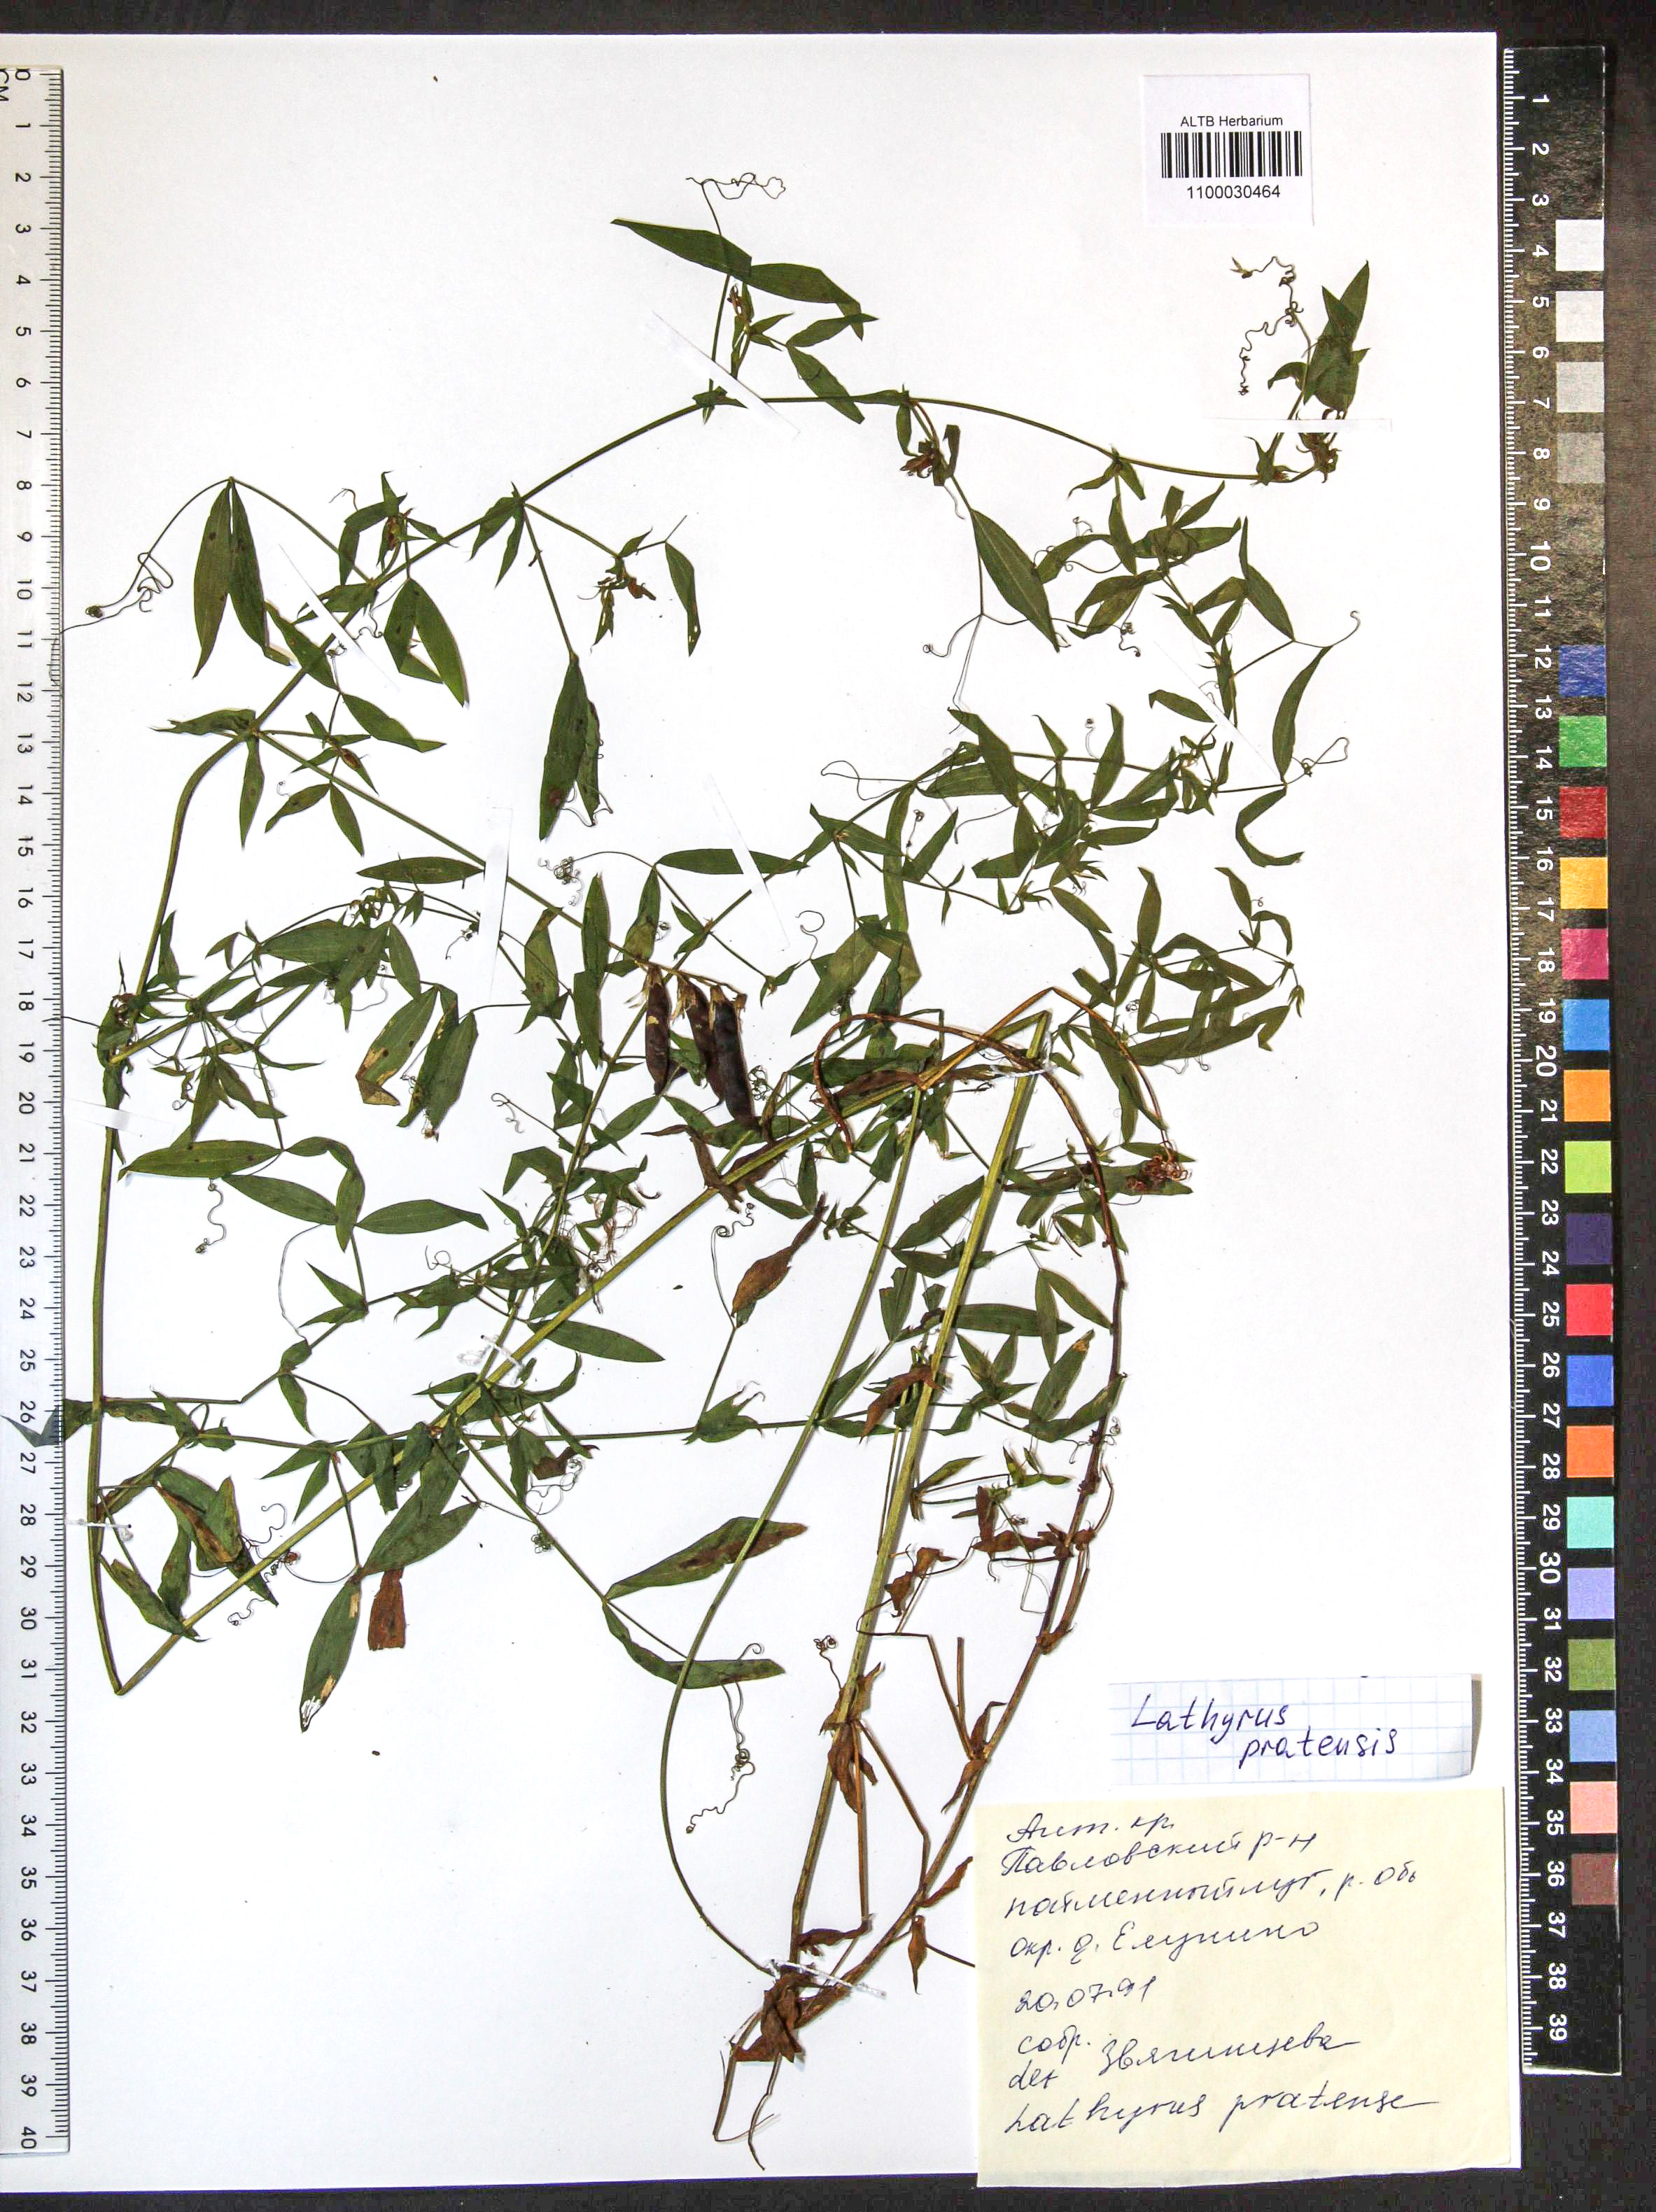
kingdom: Plantae
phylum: Tracheophyta
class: Magnoliopsida
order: Fabales
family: Fabaceae
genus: Lathyrus
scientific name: Lathyrus pratensis
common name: Meadow vetchling
